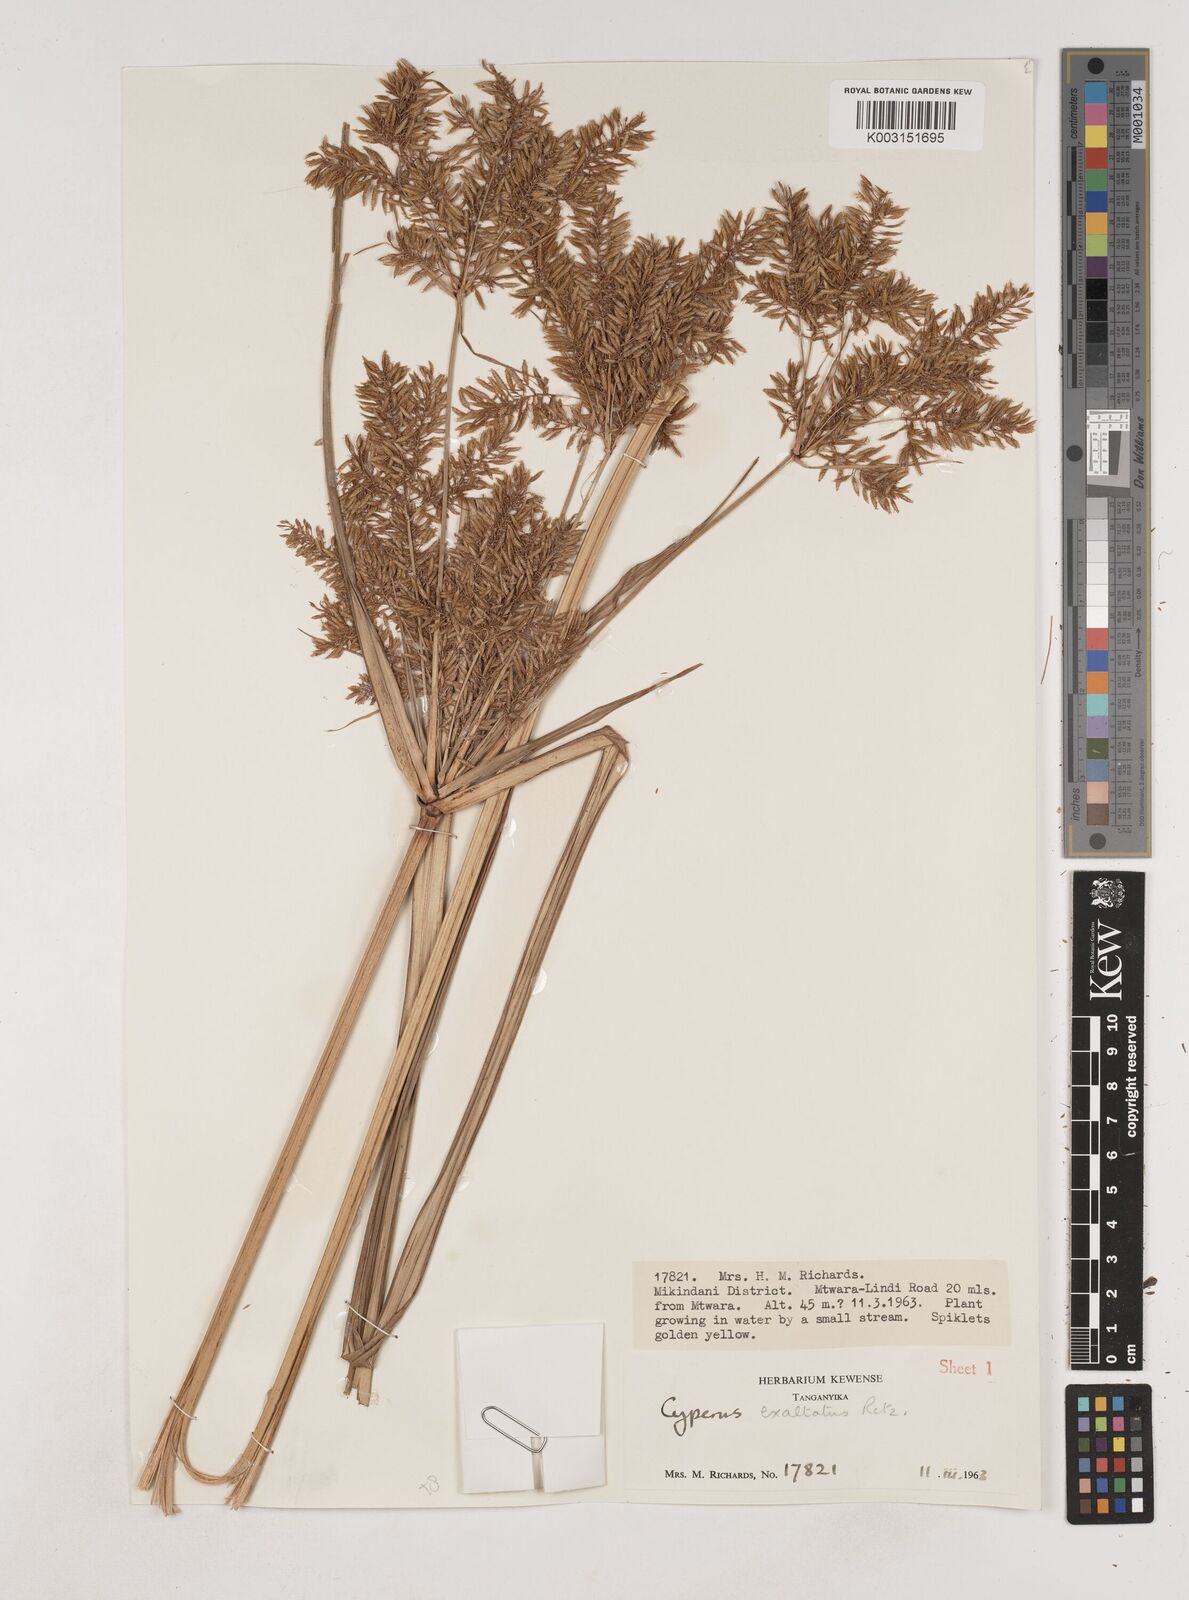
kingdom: Plantae
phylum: Tracheophyta
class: Liliopsida
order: Poales
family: Cyperaceae
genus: Cyperus
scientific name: Cyperus exaltatus
